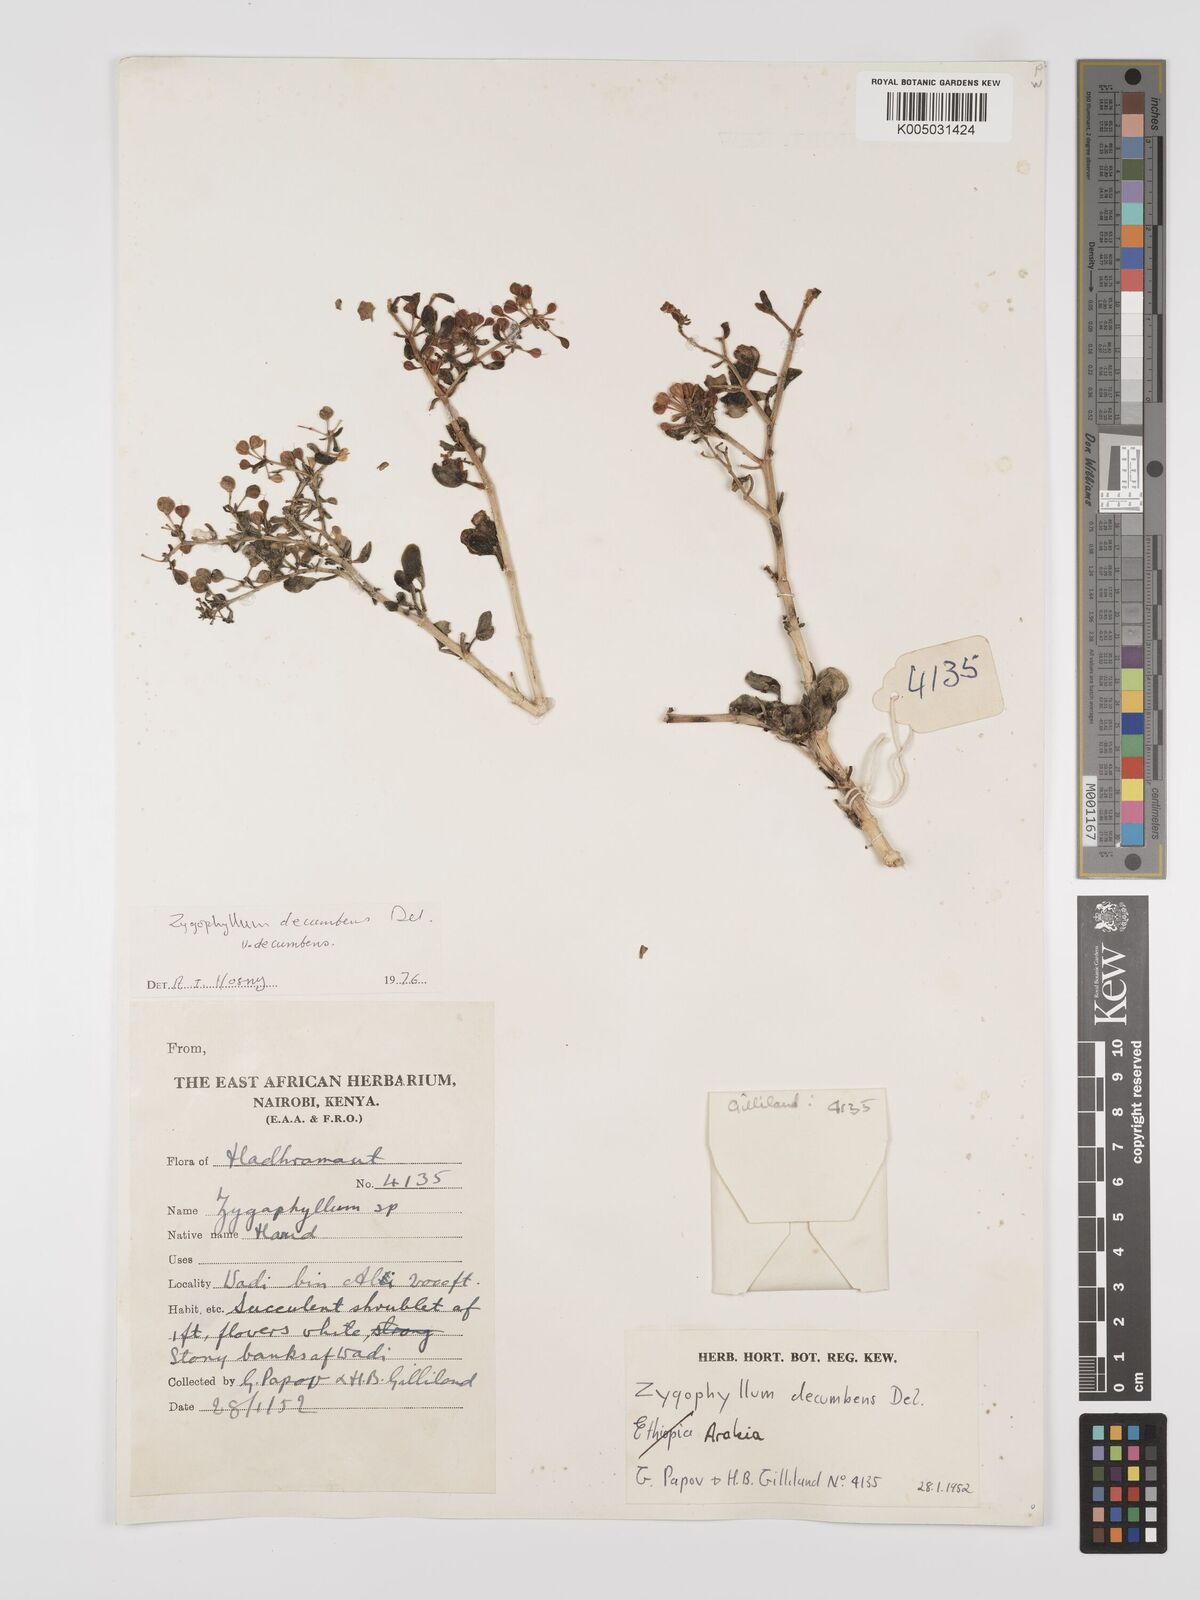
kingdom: Plantae
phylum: Tracheophyta
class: Magnoliopsida
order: Zygophyllales
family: Zygophyllaceae
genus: Tetraena
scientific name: Tetraena decumbens
